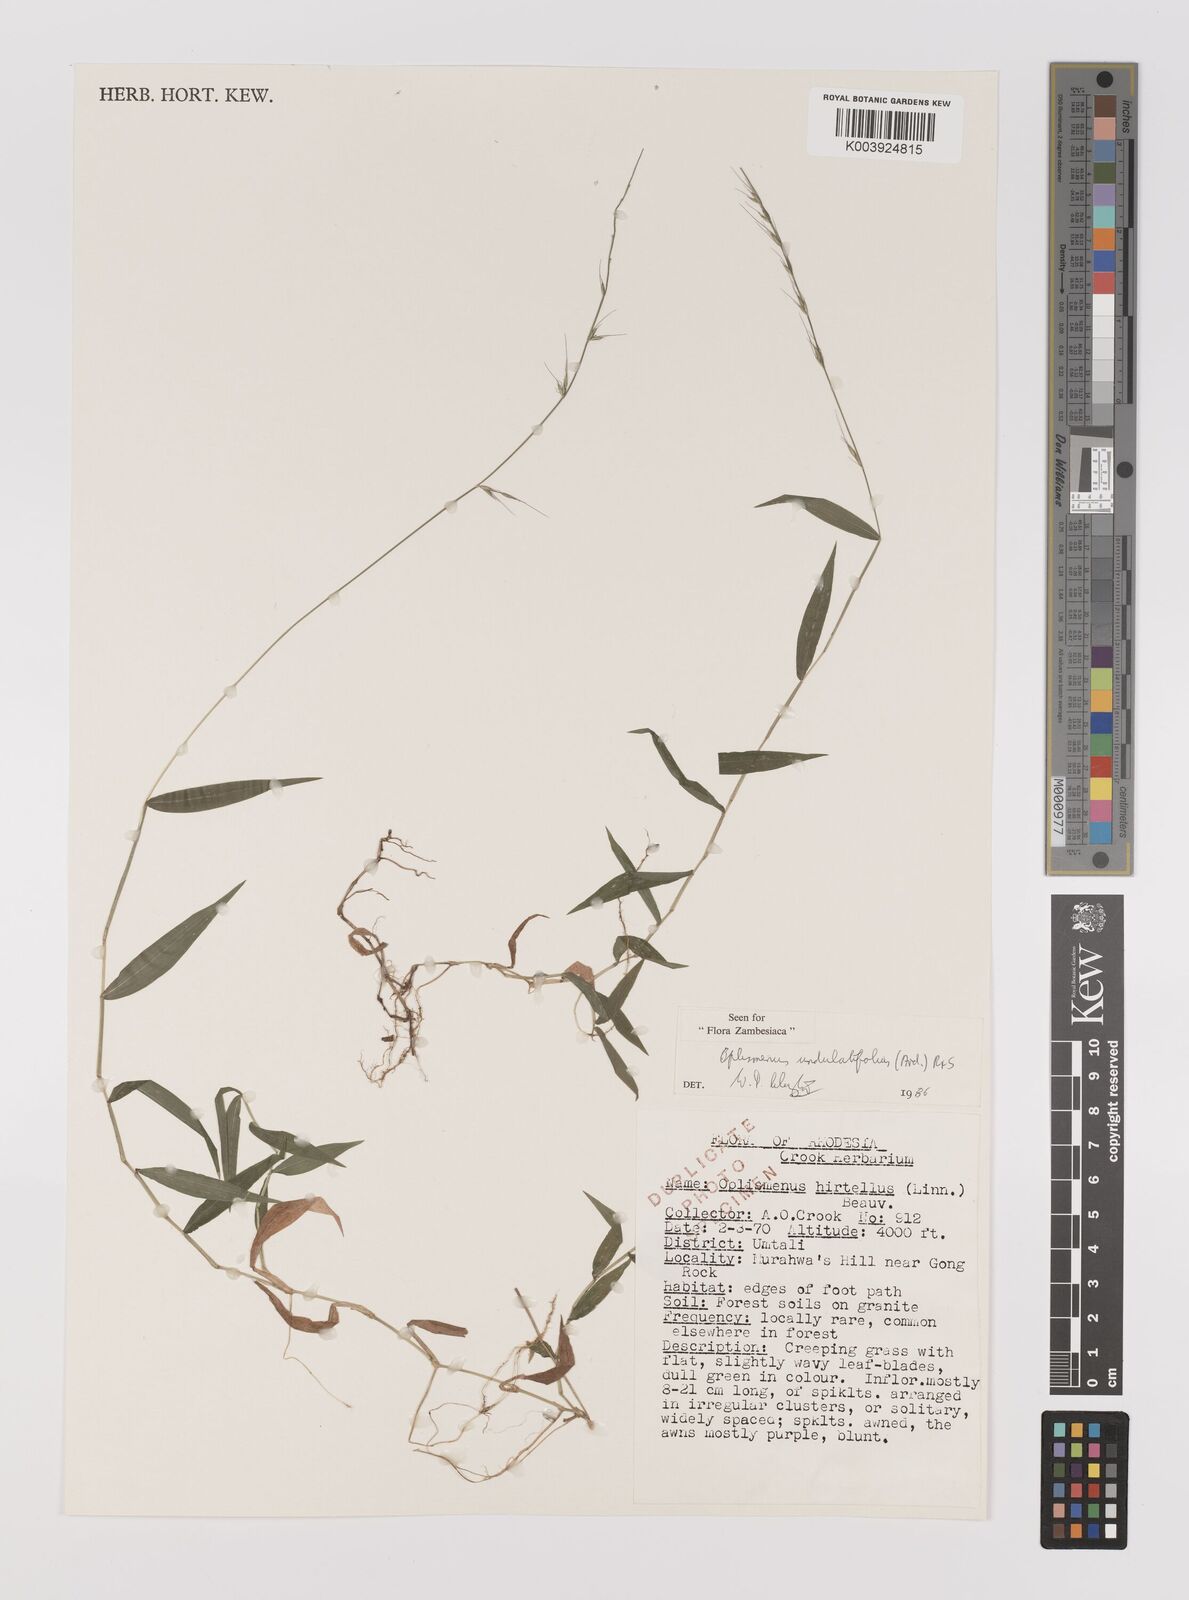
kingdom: Plantae
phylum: Tracheophyta
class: Liliopsida
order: Poales
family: Poaceae
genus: Oplismenus
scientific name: Oplismenus undulatifolius
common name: Wavyleaf basketgrass
